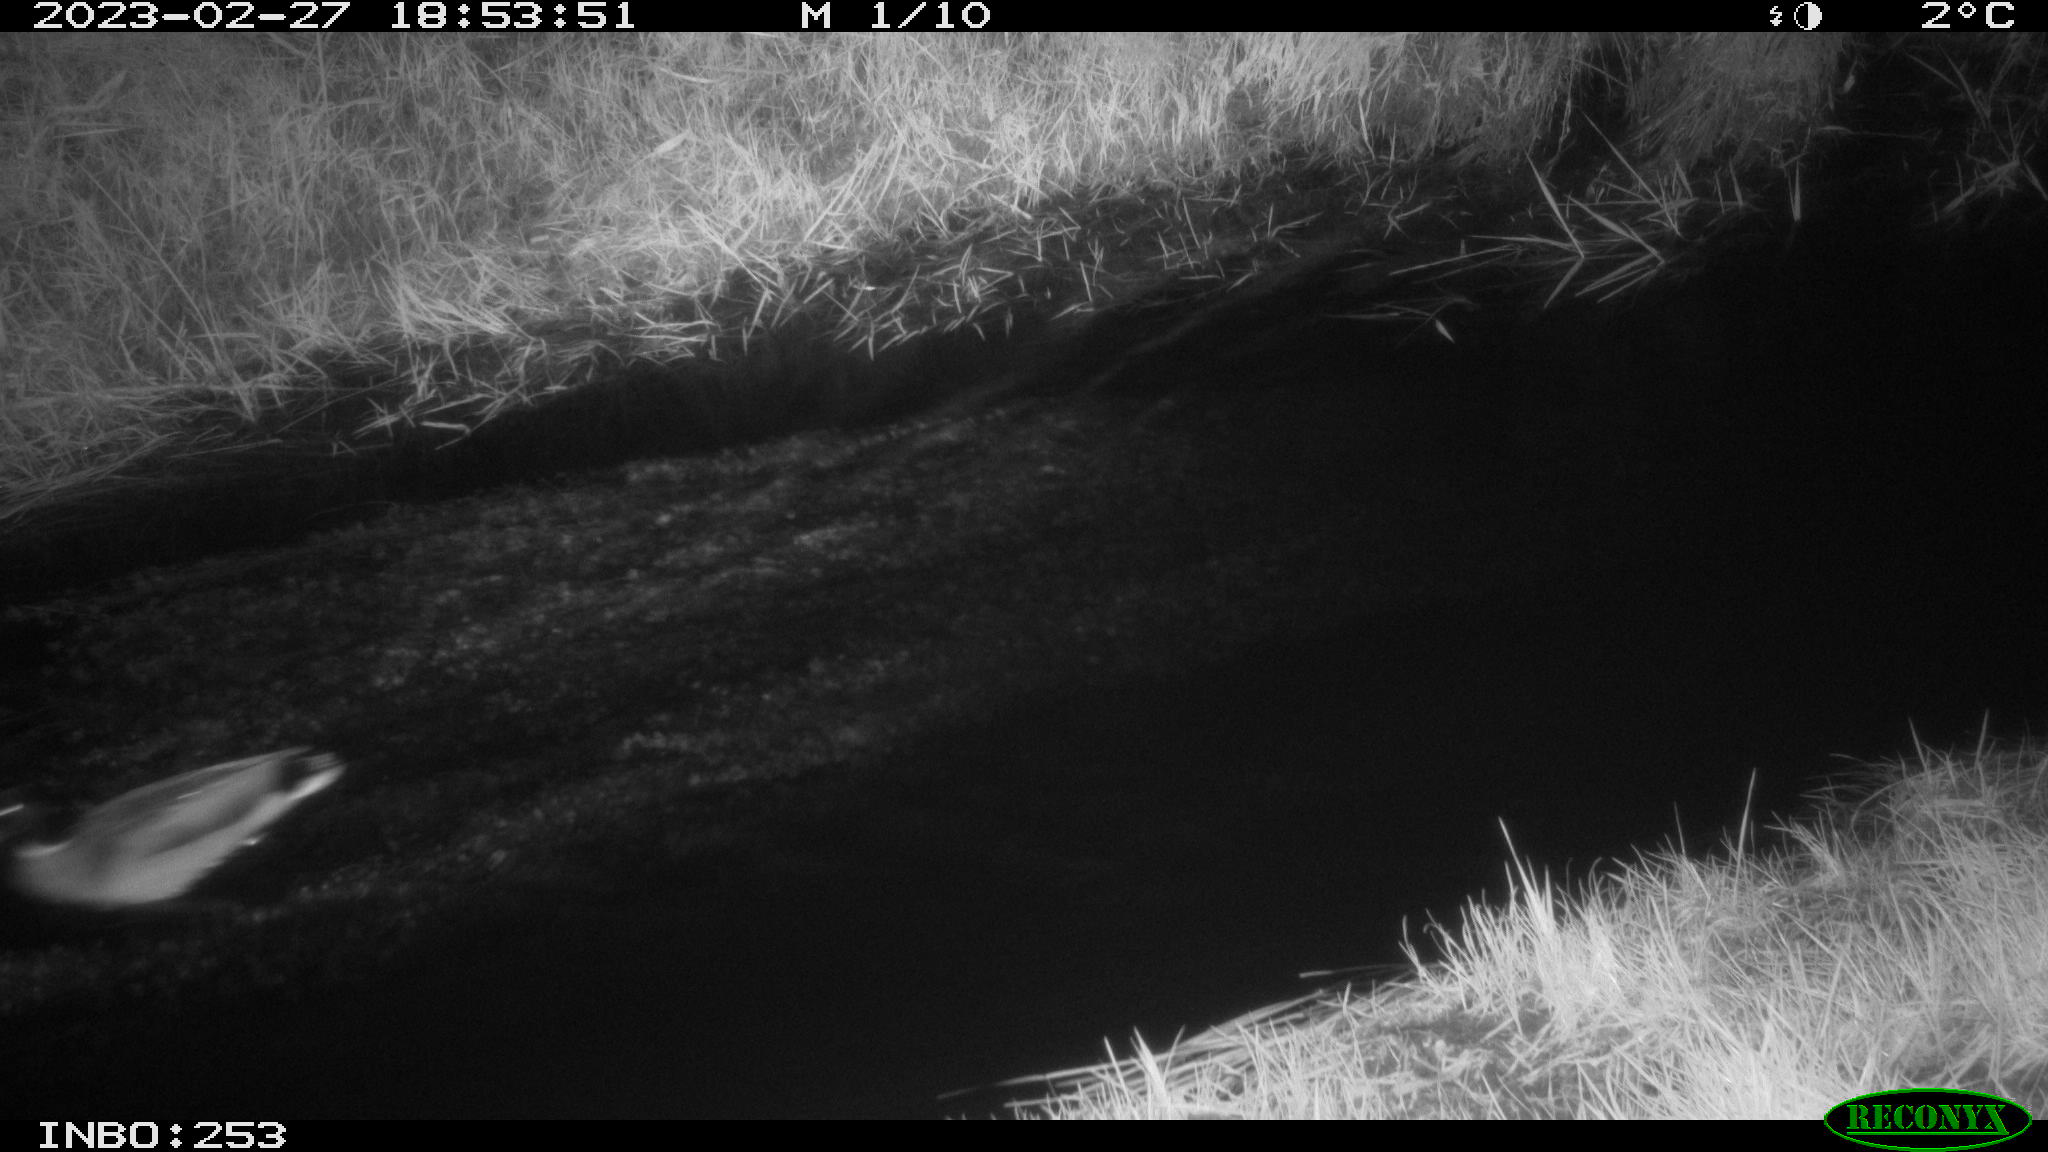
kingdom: Animalia
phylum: Chordata
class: Aves
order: Anseriformes
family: Anatidae
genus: Anas
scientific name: Anas
